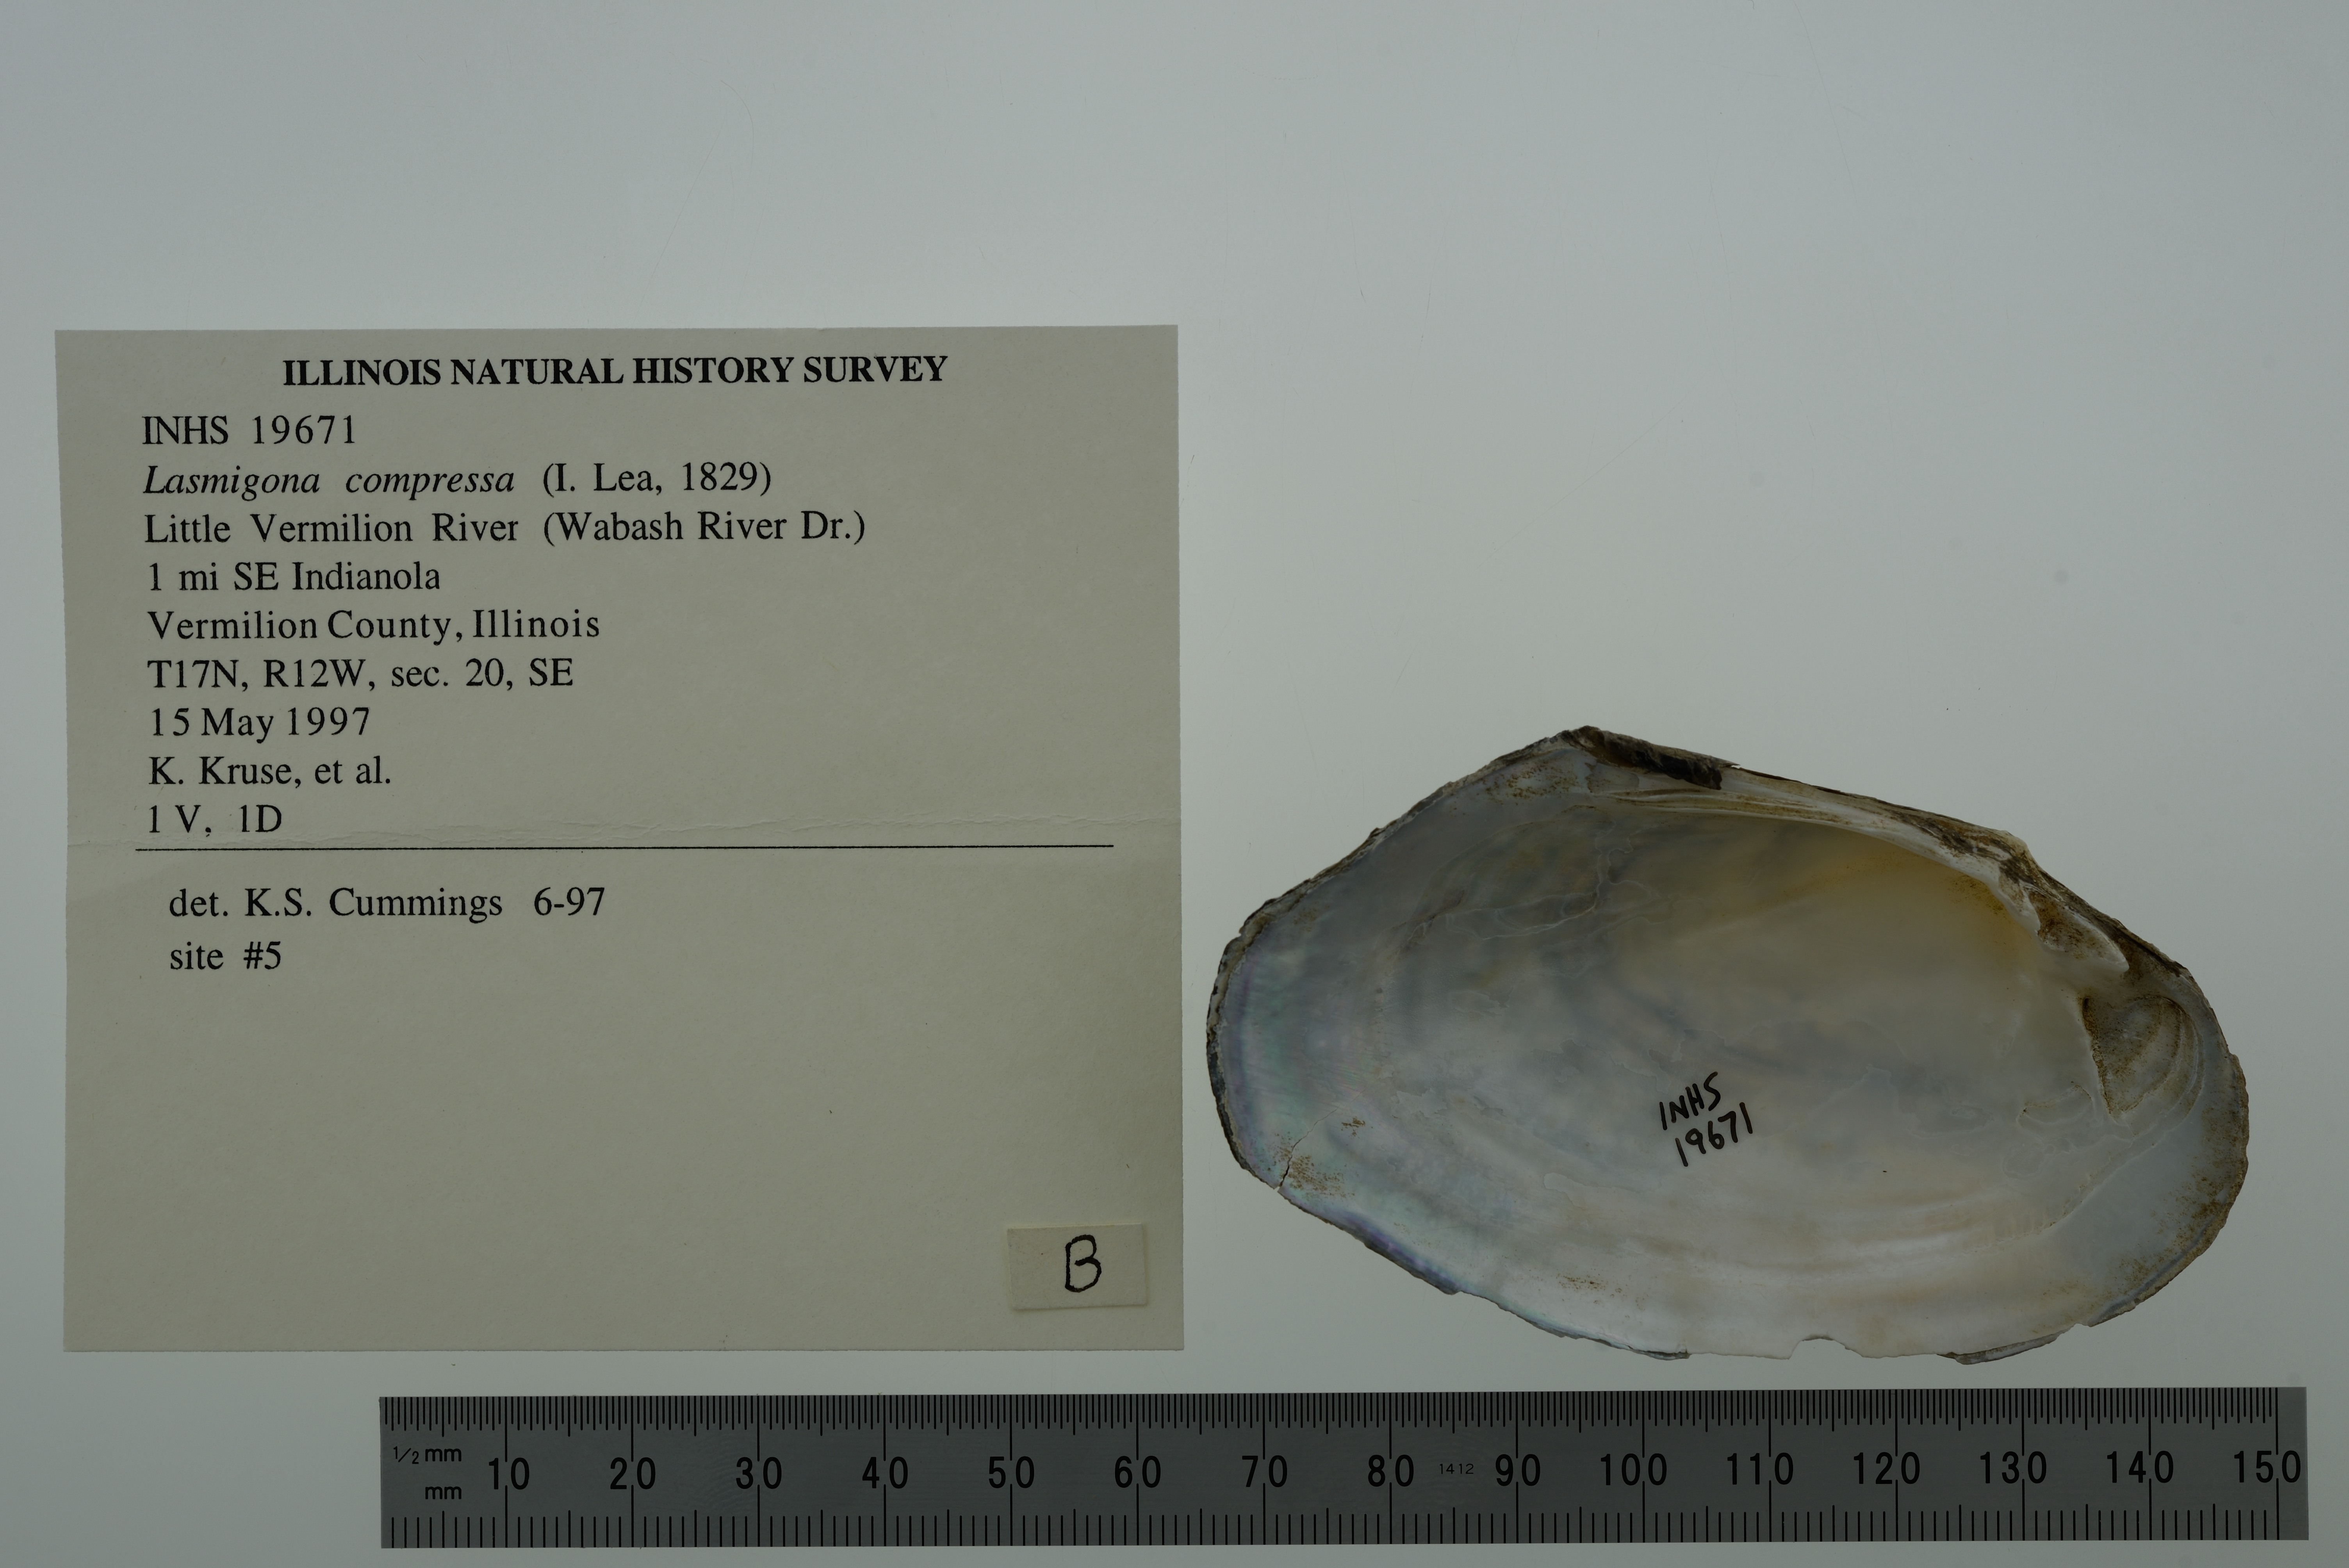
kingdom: Animalia
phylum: Mollusca
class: Bivalvia
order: Unionida
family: Unionidae
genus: Lasmigona
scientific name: Lasmigona compressa
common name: Creek heelsplitter
